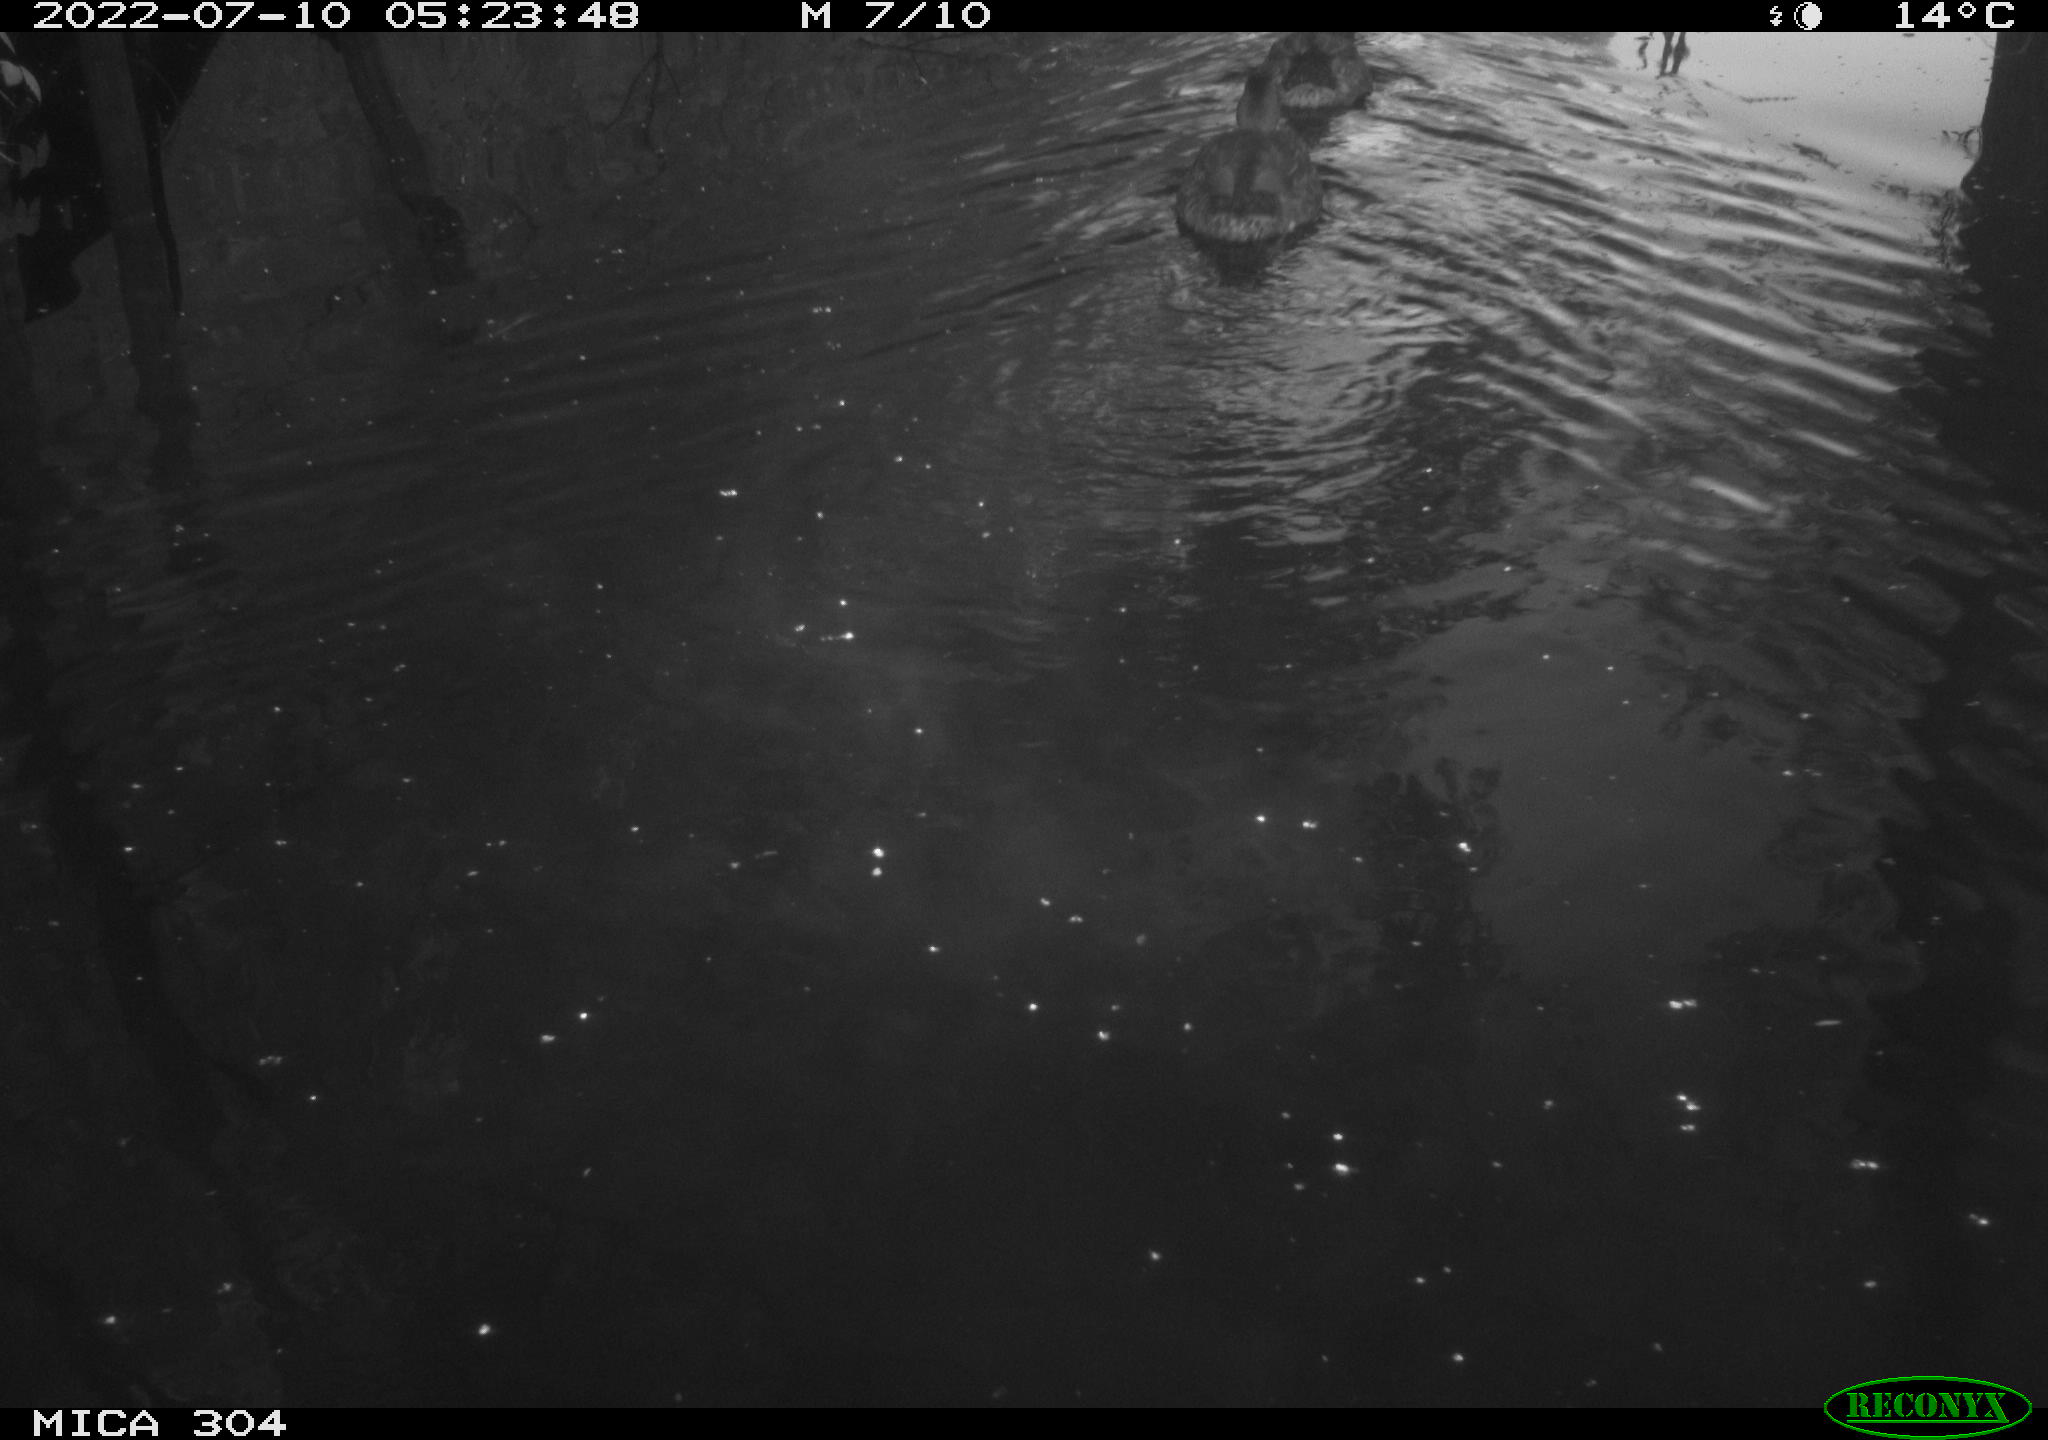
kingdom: Animalia
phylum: Chordata
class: Aves
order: Anseriformes
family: Anatidae
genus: Anas
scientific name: Anas platyrhynchos
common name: Mallard
